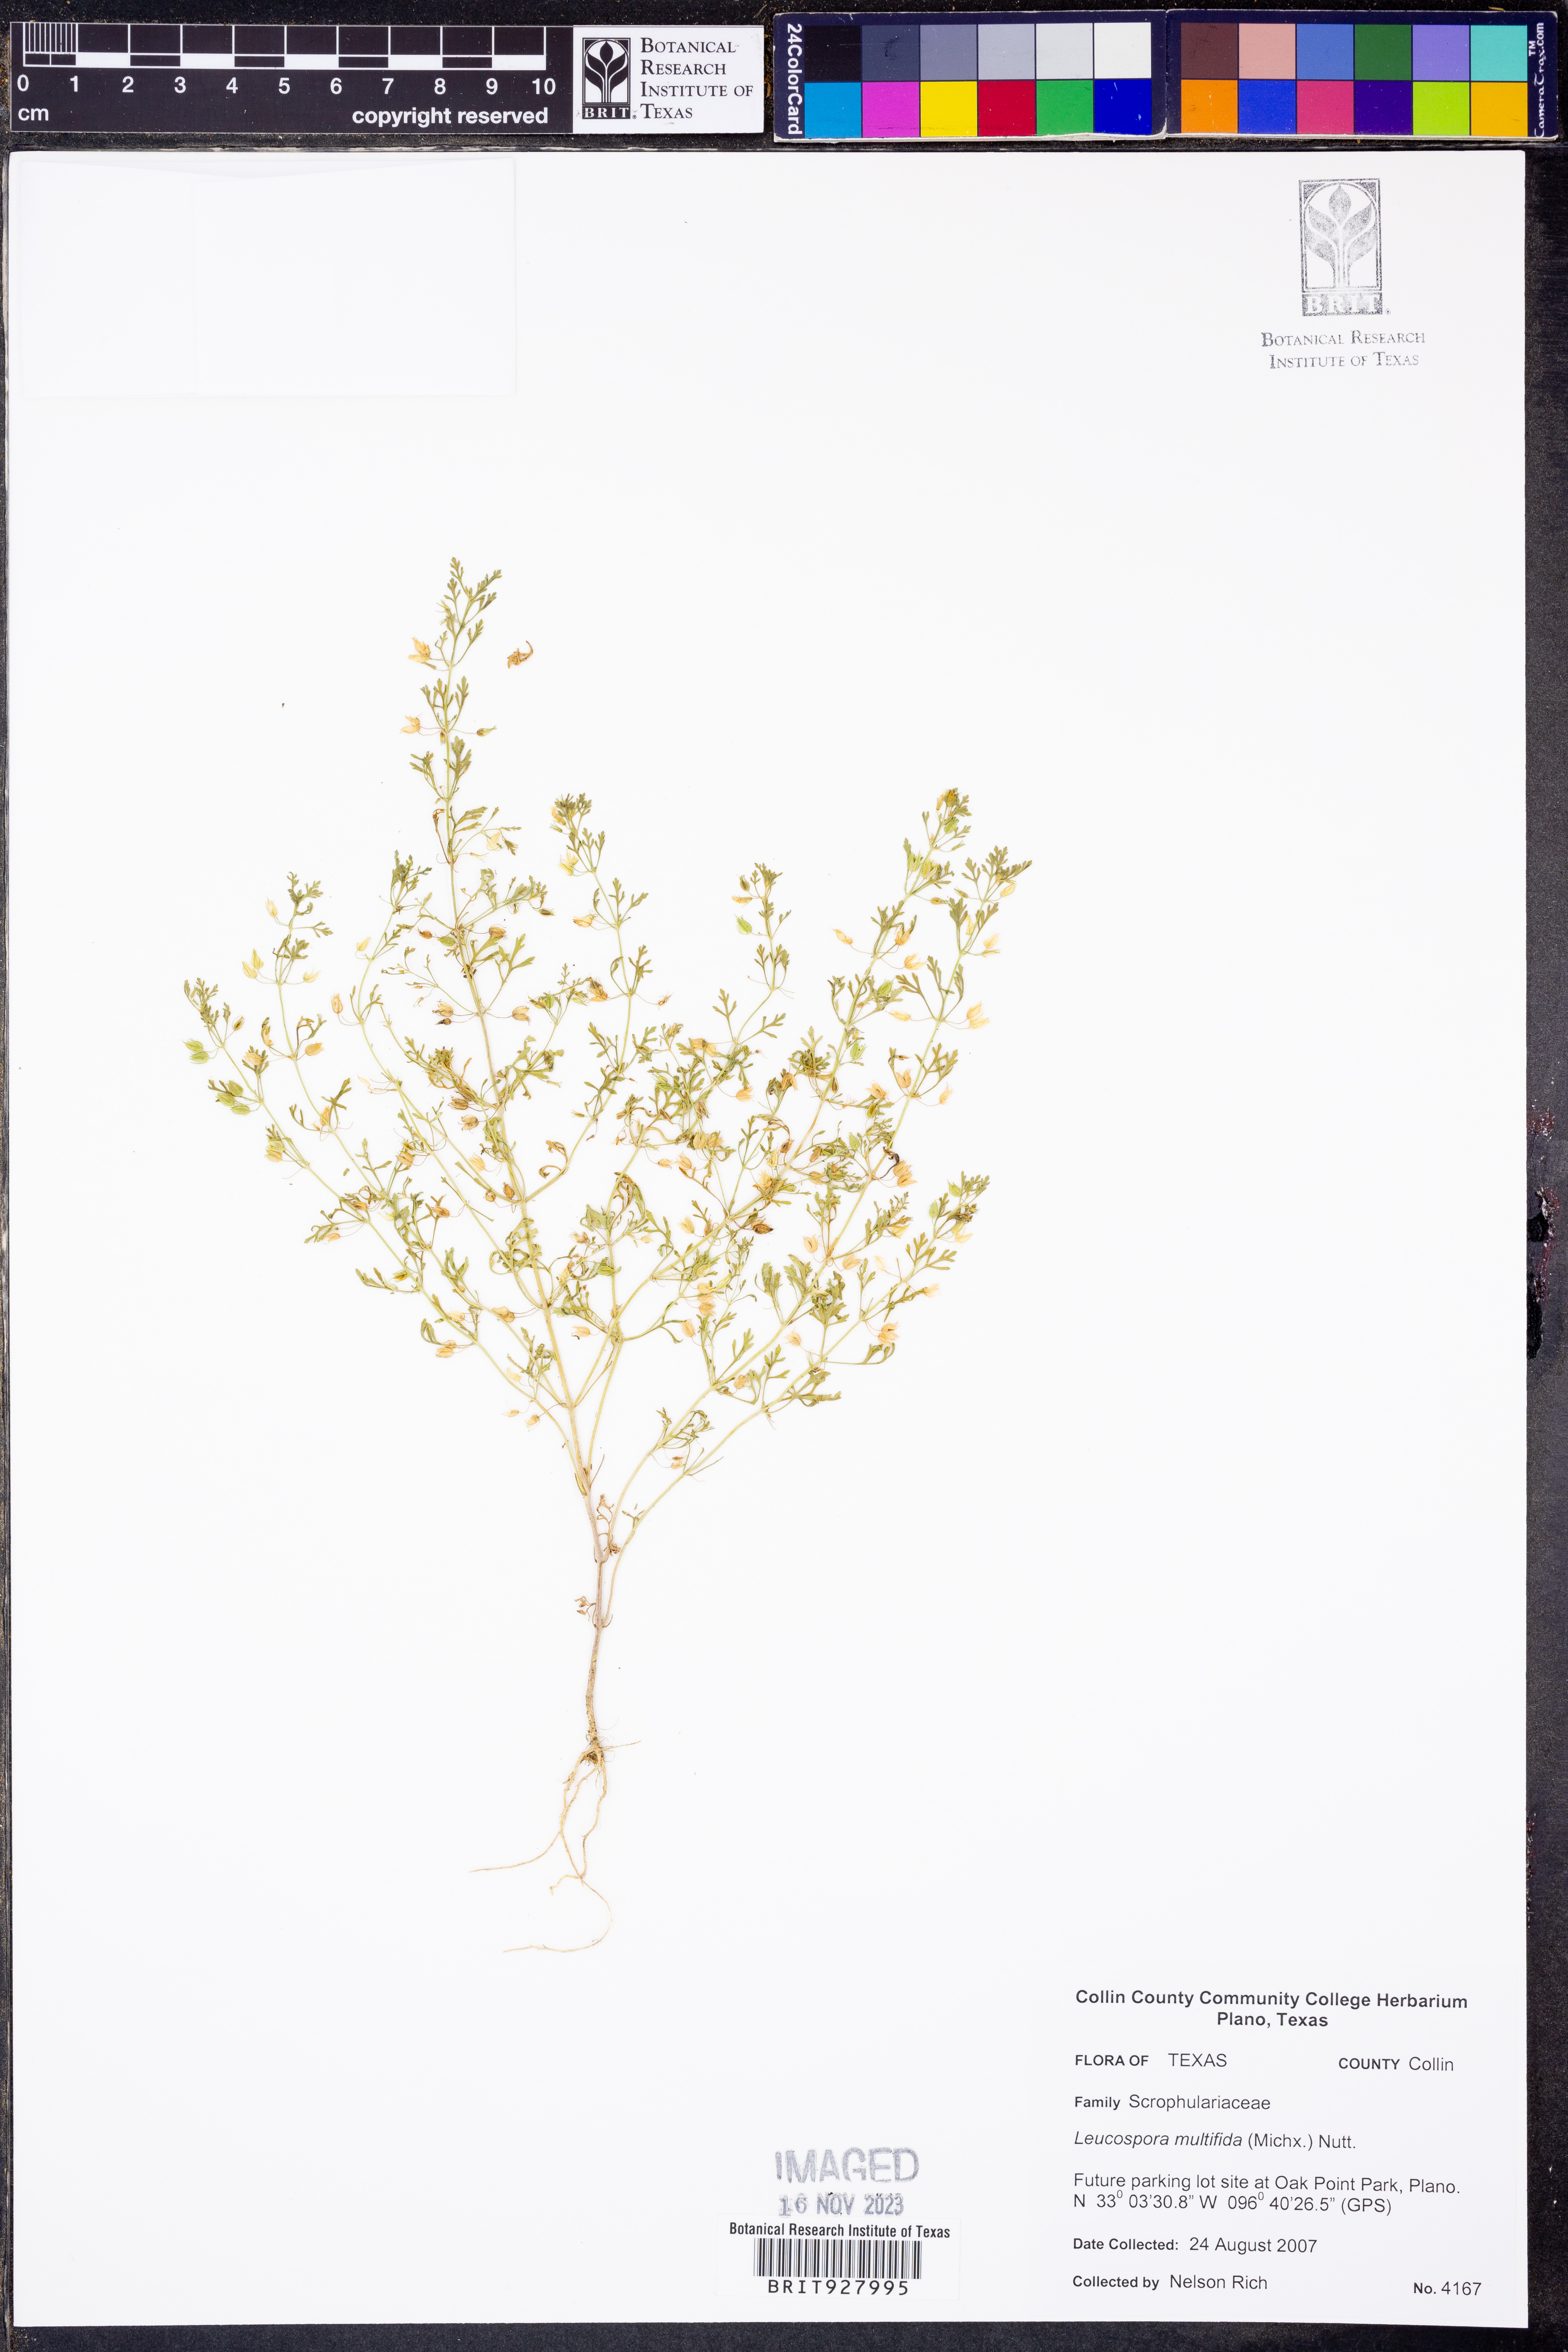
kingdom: Plantae
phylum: Tracheophyta
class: Magnoliopsida
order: Lamiales
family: Plantaginaceae
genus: Leucospora
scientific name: Leucospora multifida
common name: Narrow-leaf paleseed
